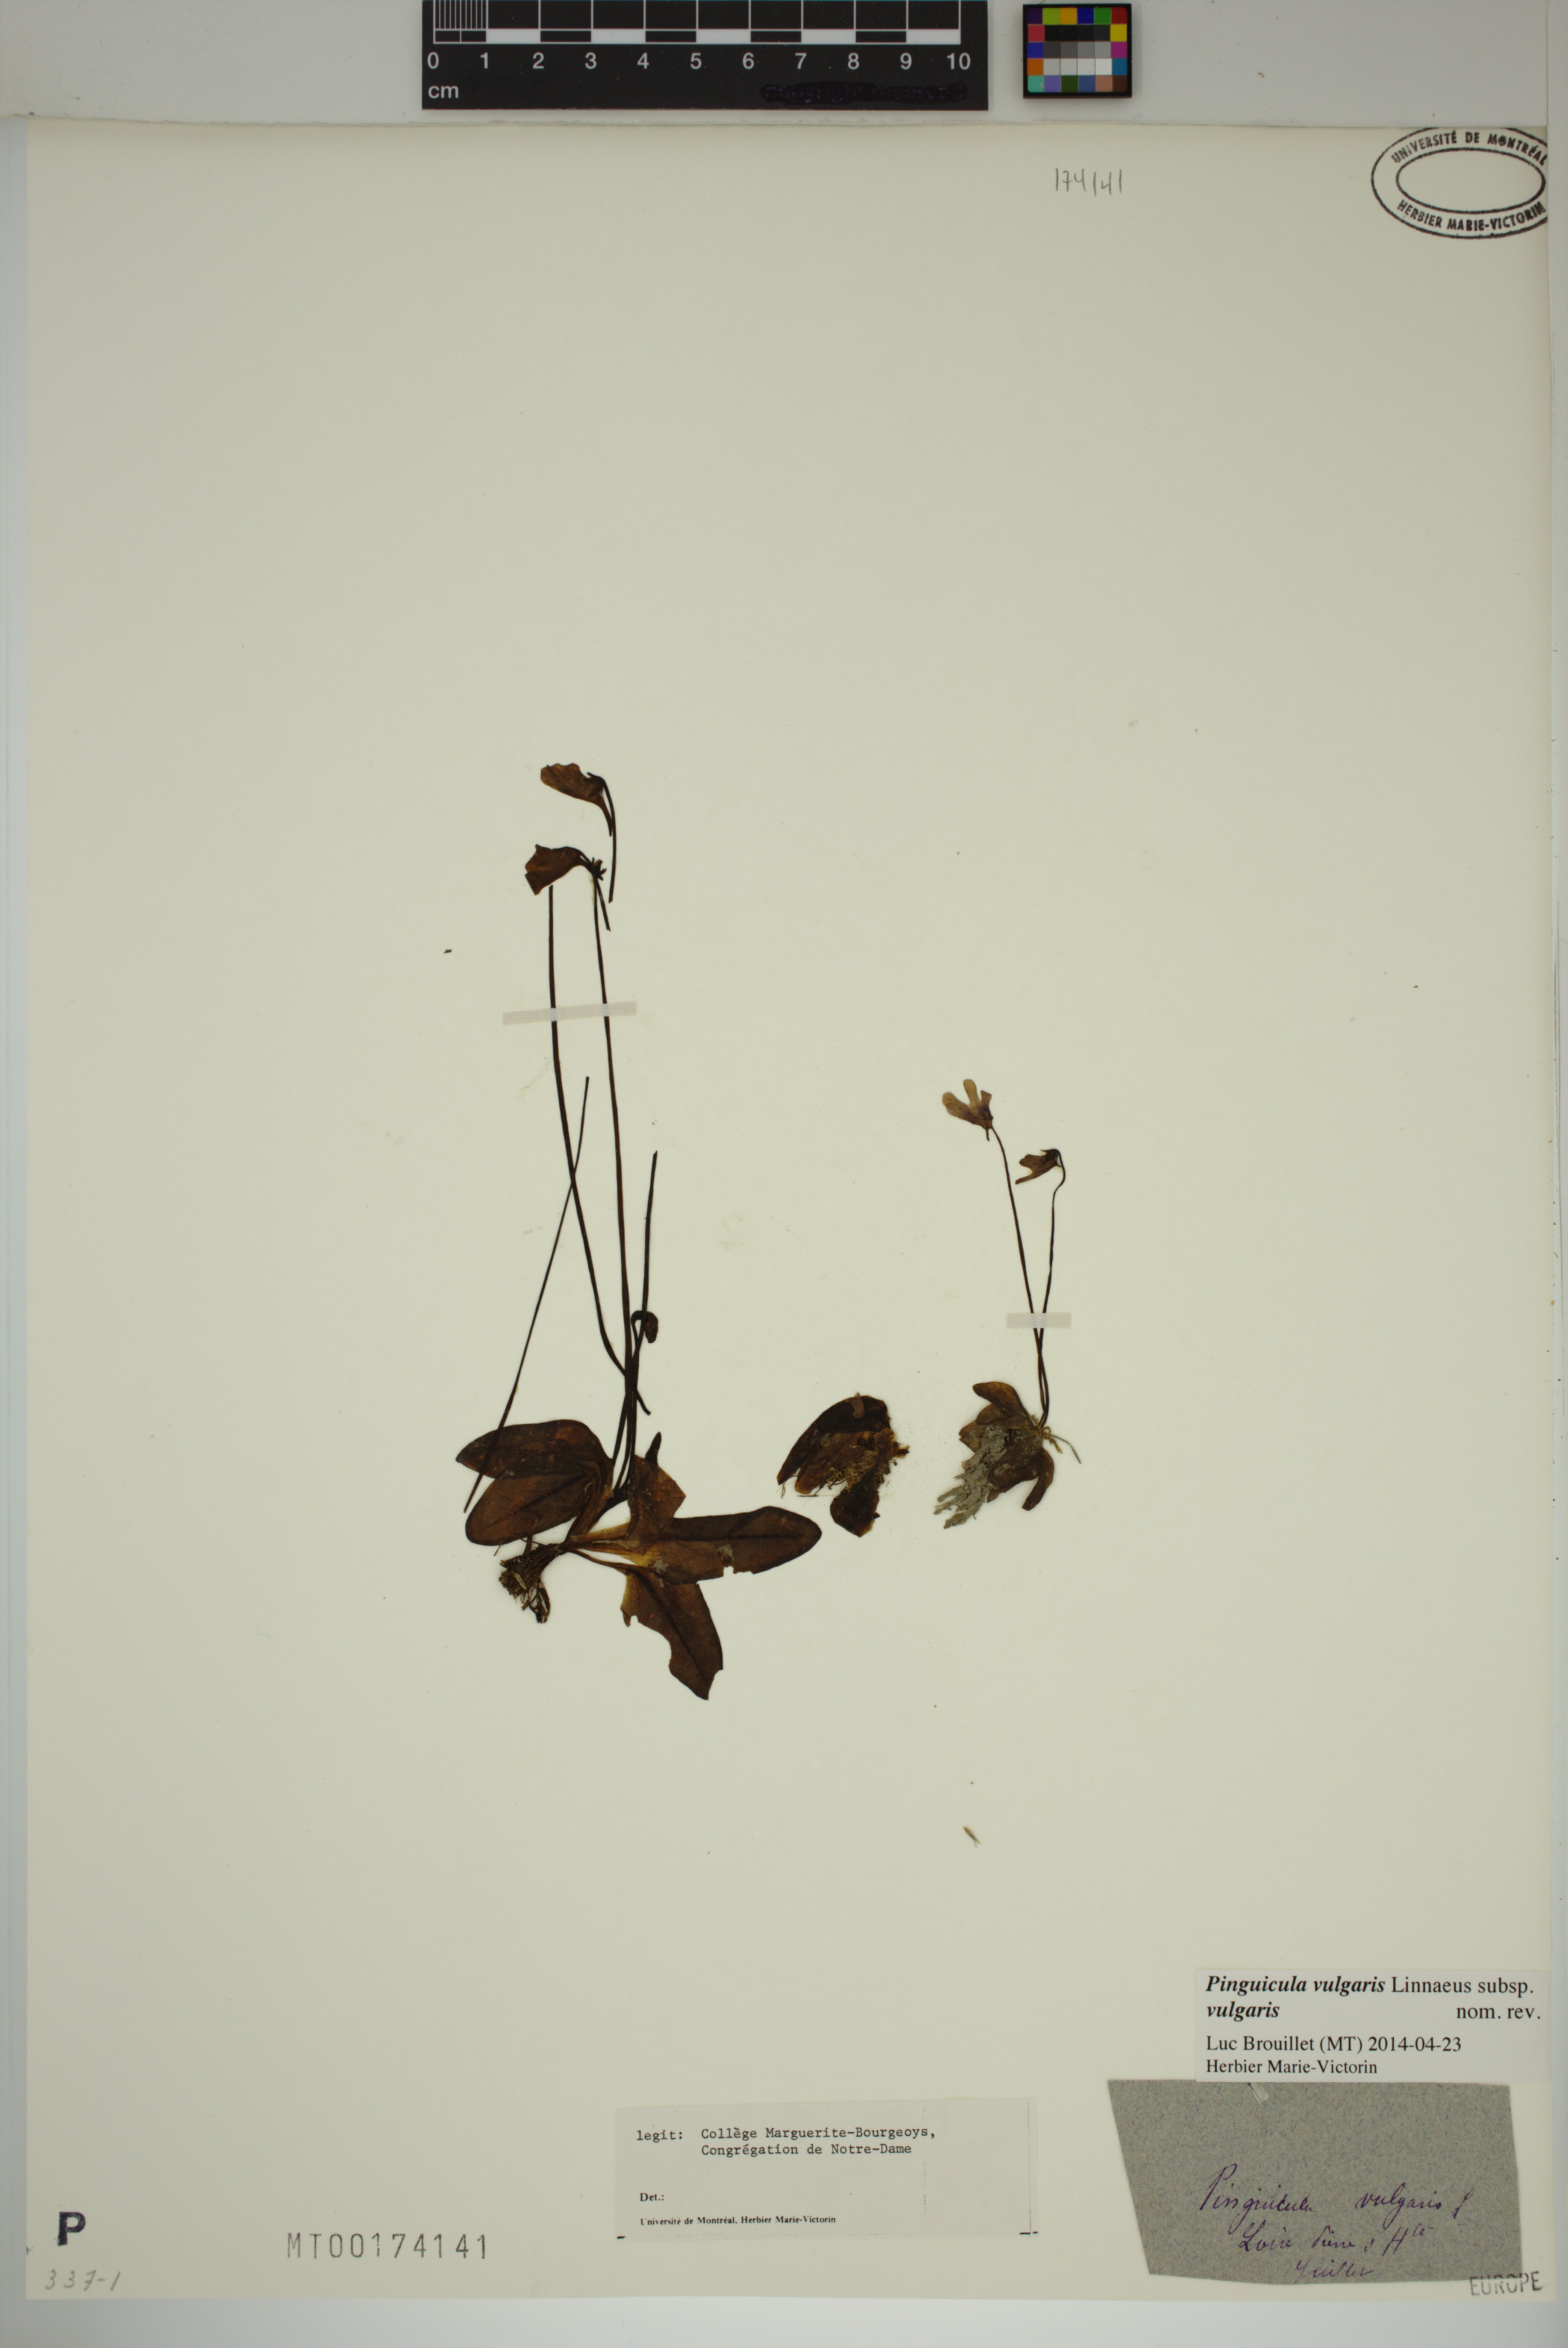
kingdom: Plantae
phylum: Tracheophyta
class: Magnoliopsida
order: Lamiales
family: Lentibulariaceae
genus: Pinguicula
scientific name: Pinguicula vulgaris
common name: Common butterwort
